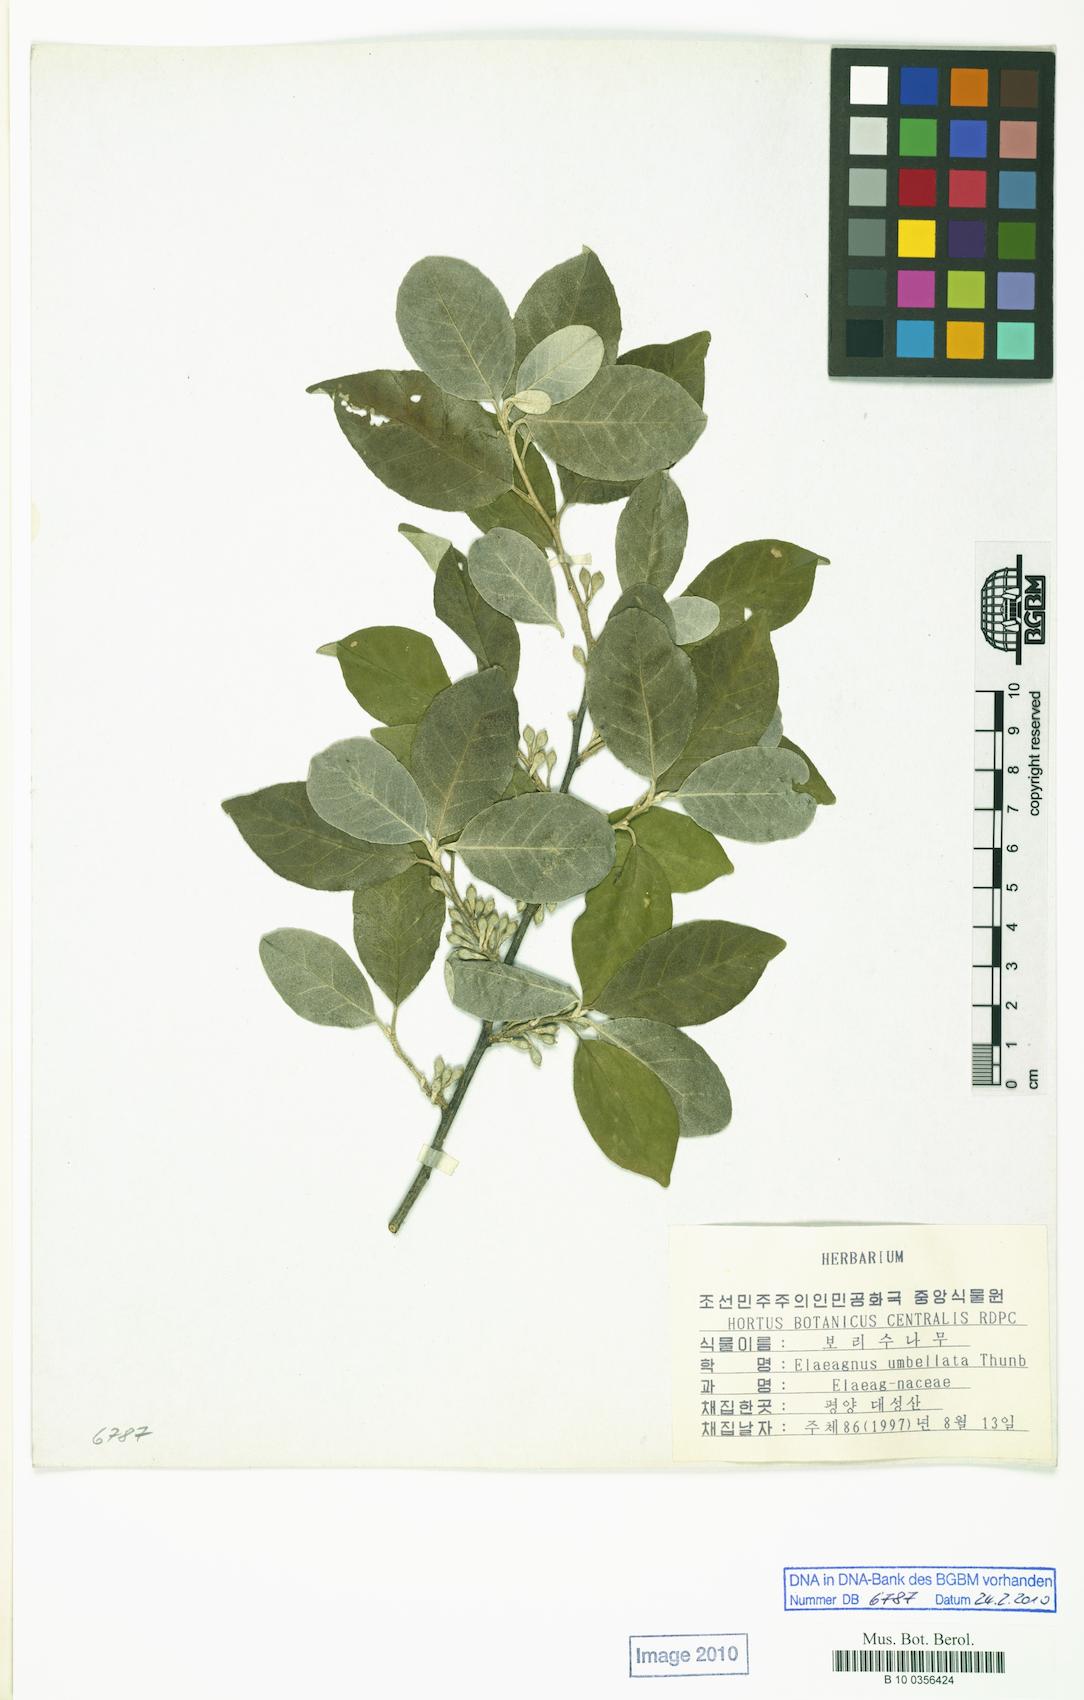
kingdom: Plantae
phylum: Tracheophyta
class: Magnoliopsida
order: Rosales
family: Elaeagnaceae
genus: Elaeagnus
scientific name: Elaeagnus umbellata
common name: Autumn olive
